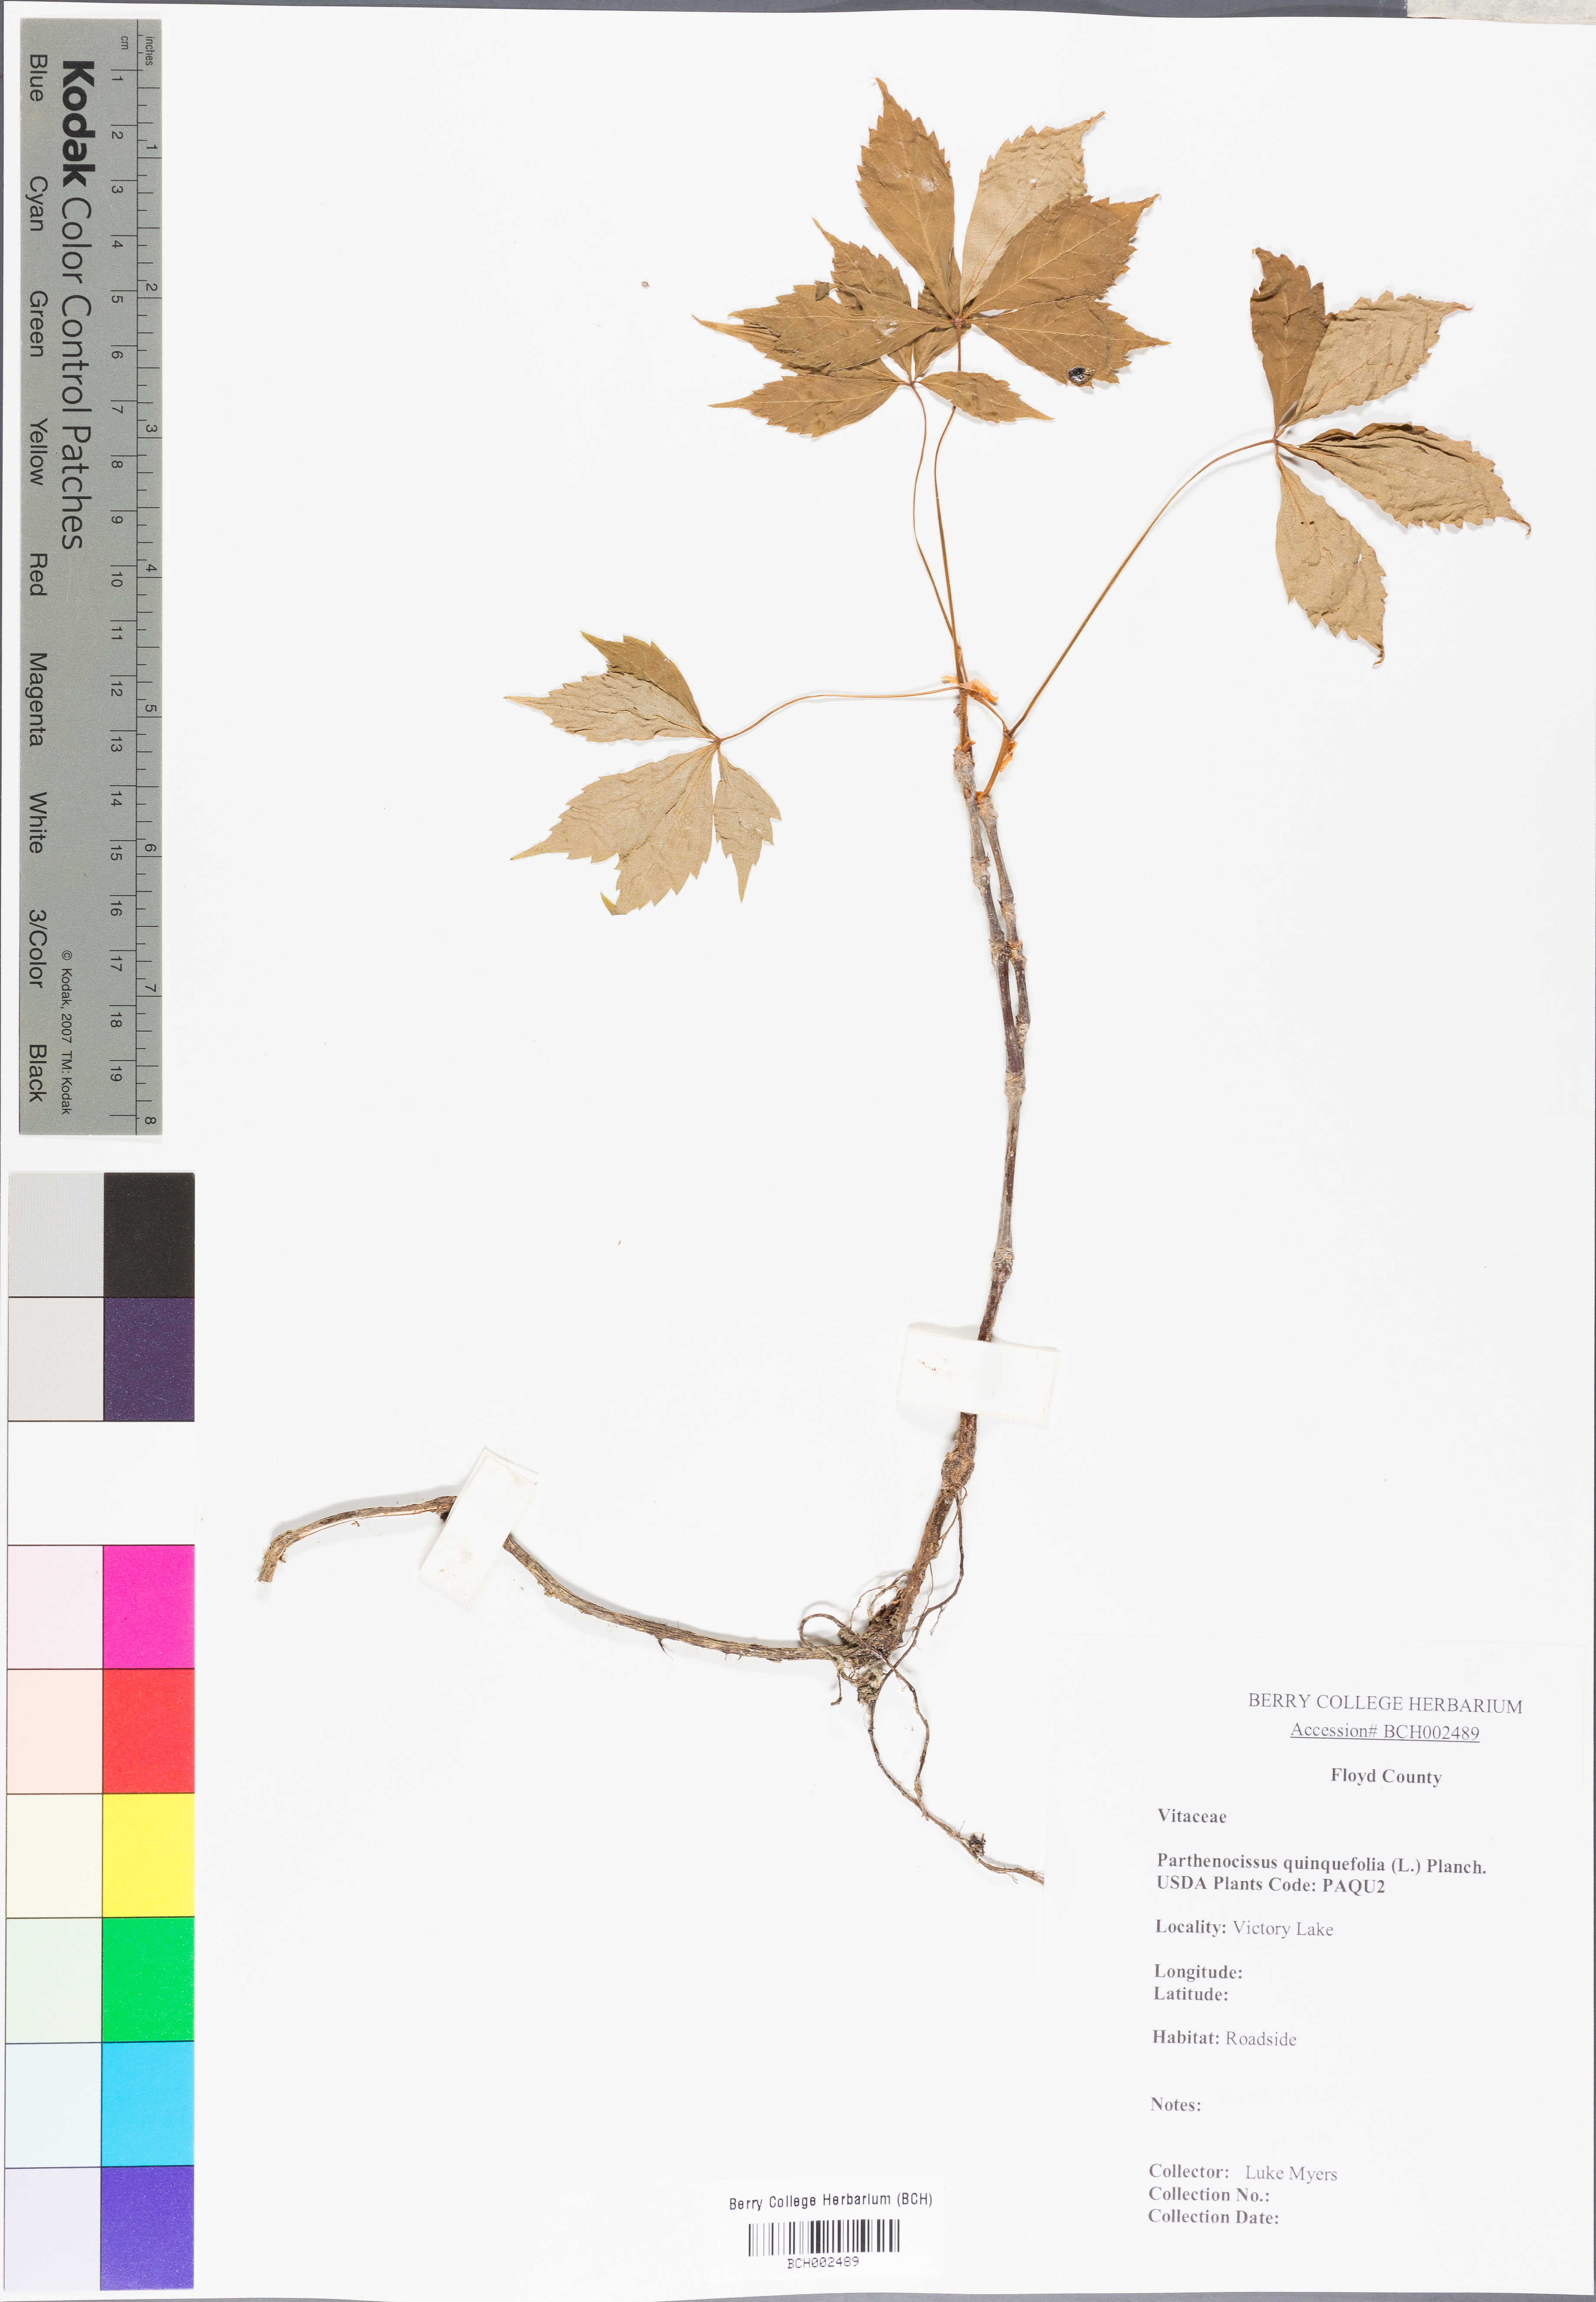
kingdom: Plantae
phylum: Tracheophyta
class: Magnoliopsida
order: Vitales
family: Vitaceae
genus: Parthenocissus
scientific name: Parthenocissus quinquefolia
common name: Virginia-creeper
